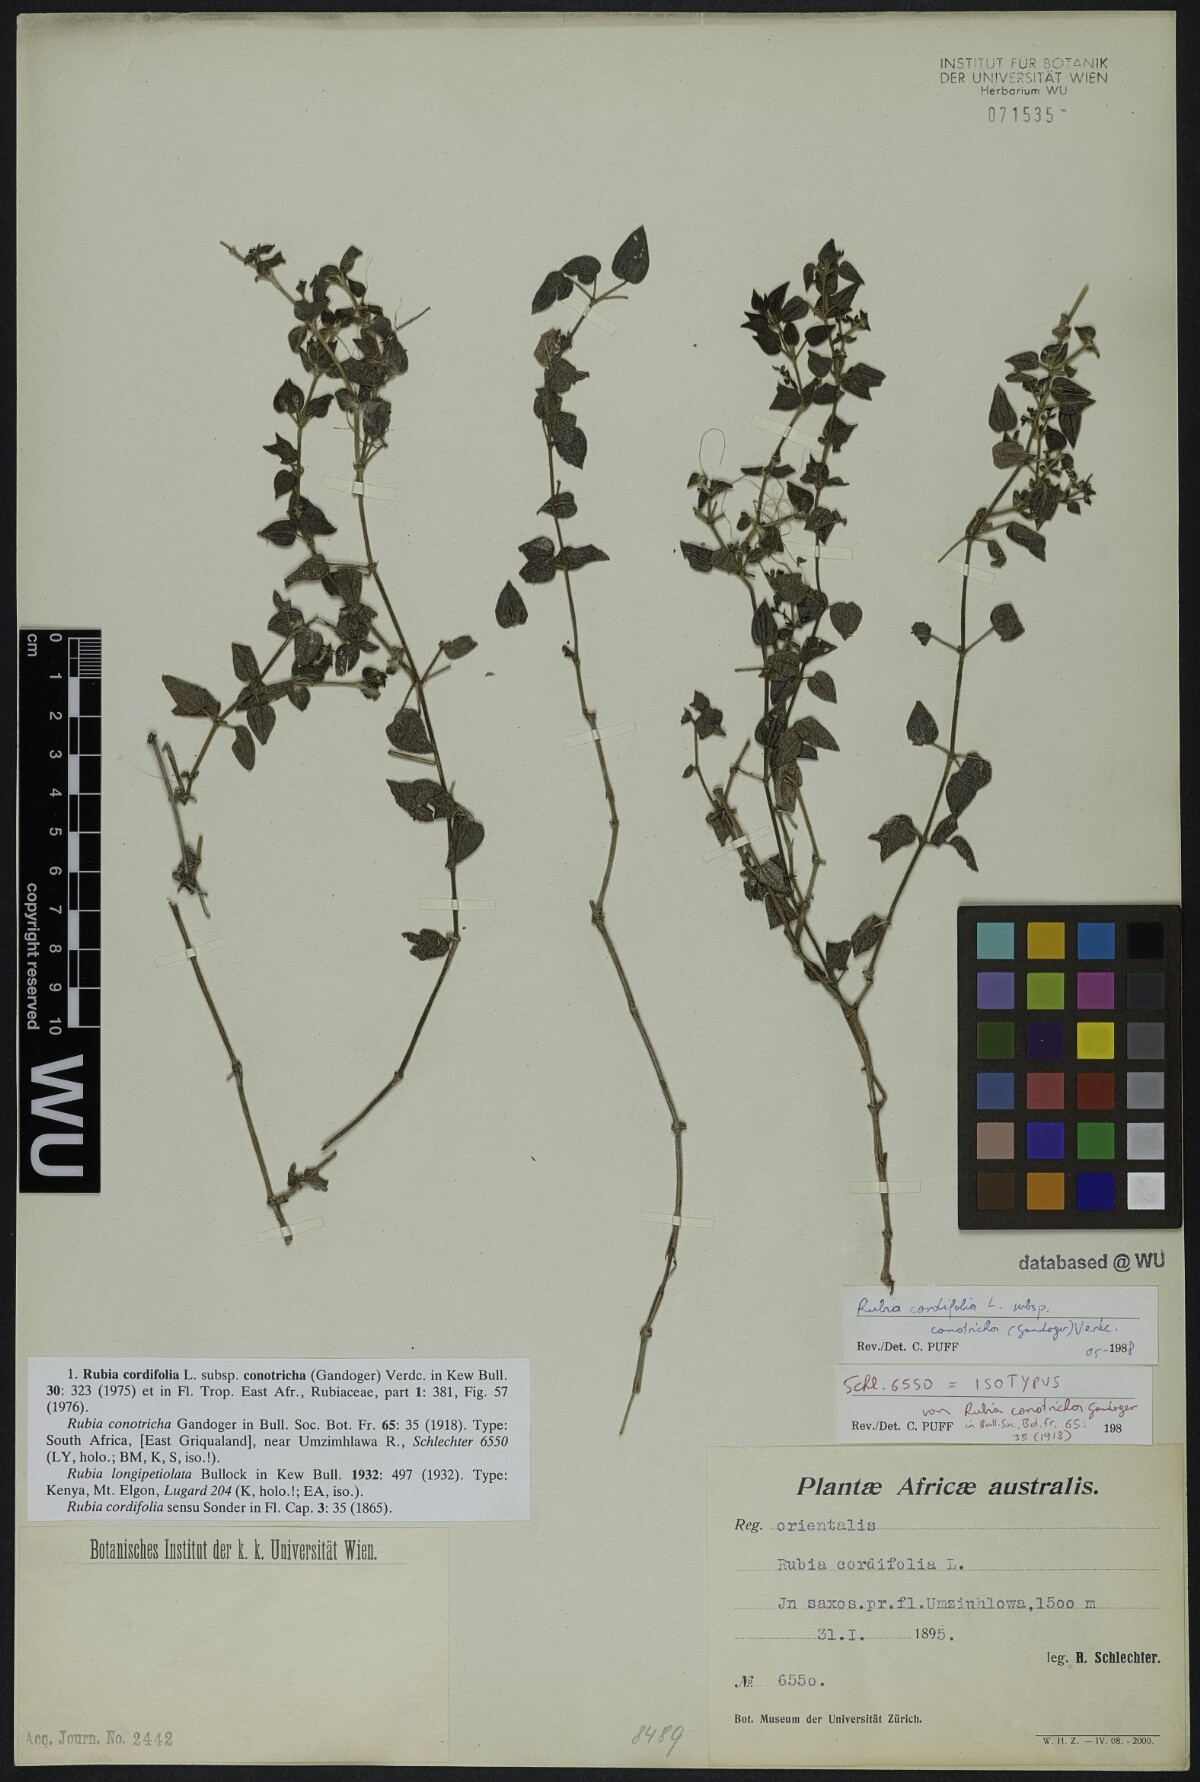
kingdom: Plantae
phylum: Tracheophyta
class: Magnoliopsida
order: Gentianales
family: Rubiaceae
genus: Rubia
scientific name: Rubia cordifolia
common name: Indian madder
